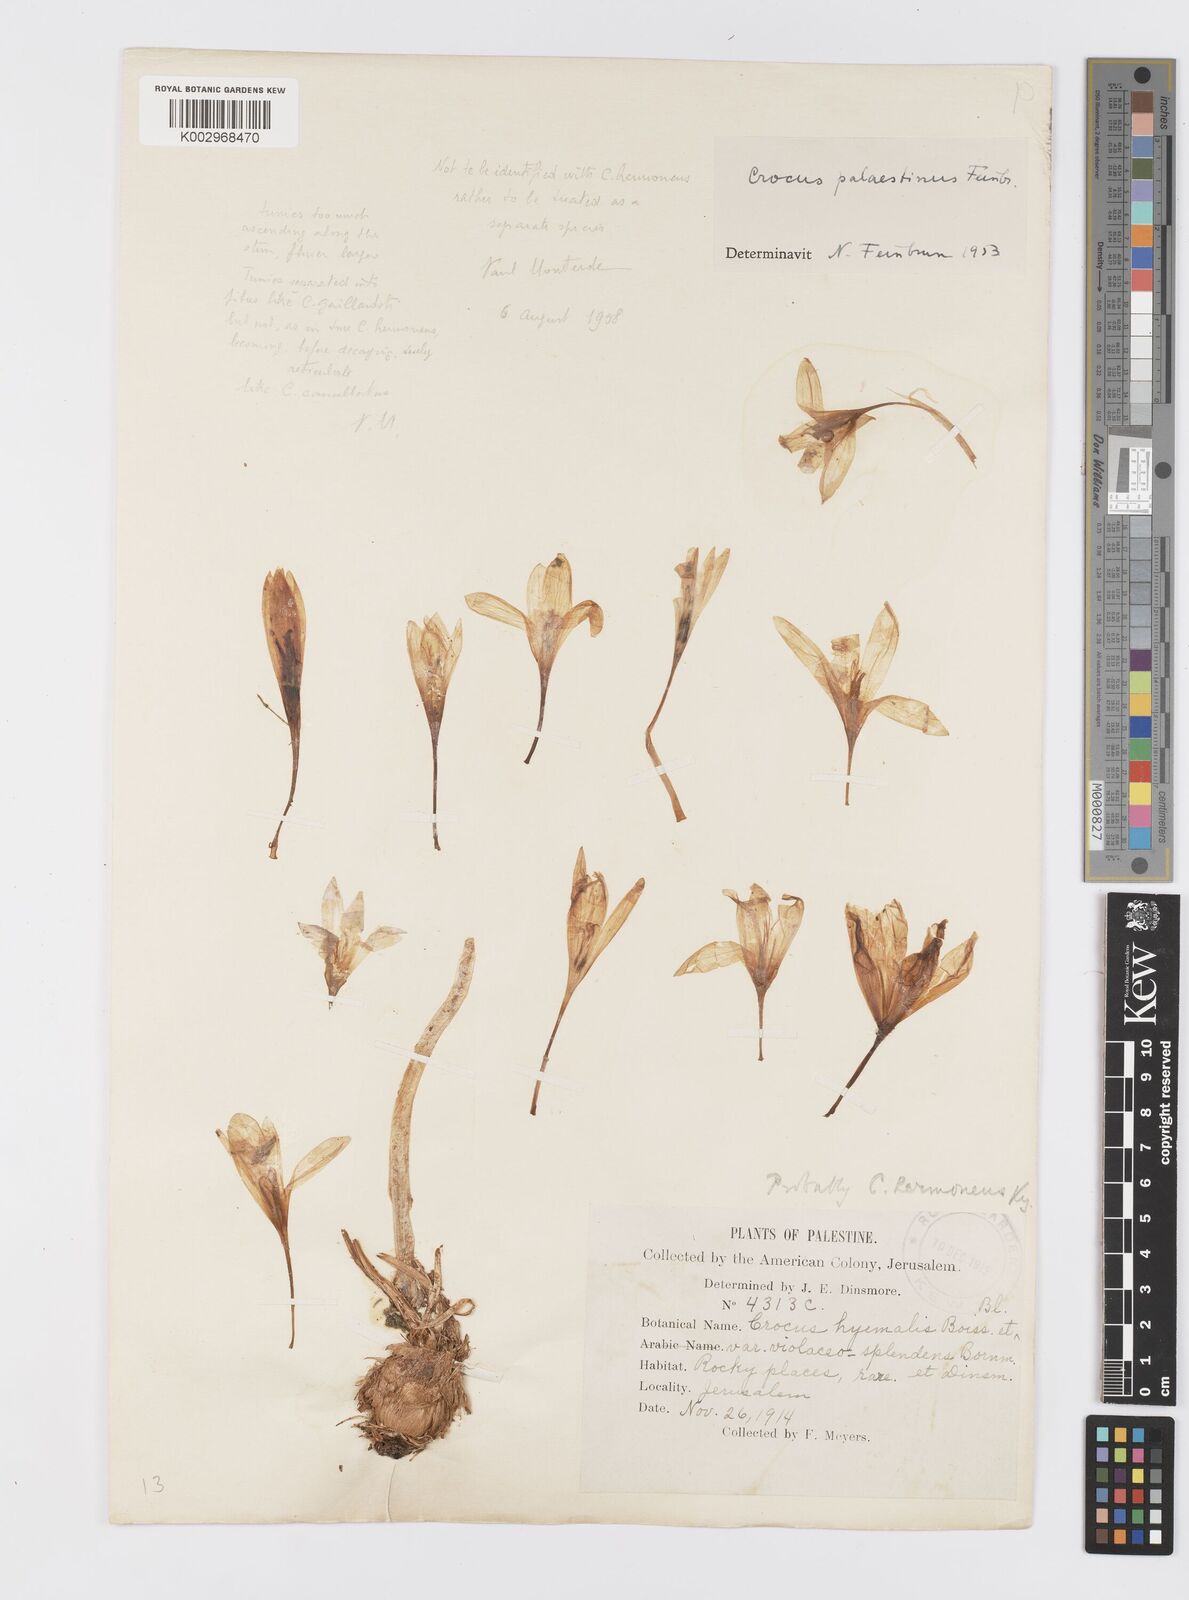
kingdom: Plantae
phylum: Tracheophyta
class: Liliopsida
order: Asparagales
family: Iridaceae
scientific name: Iridaceae
